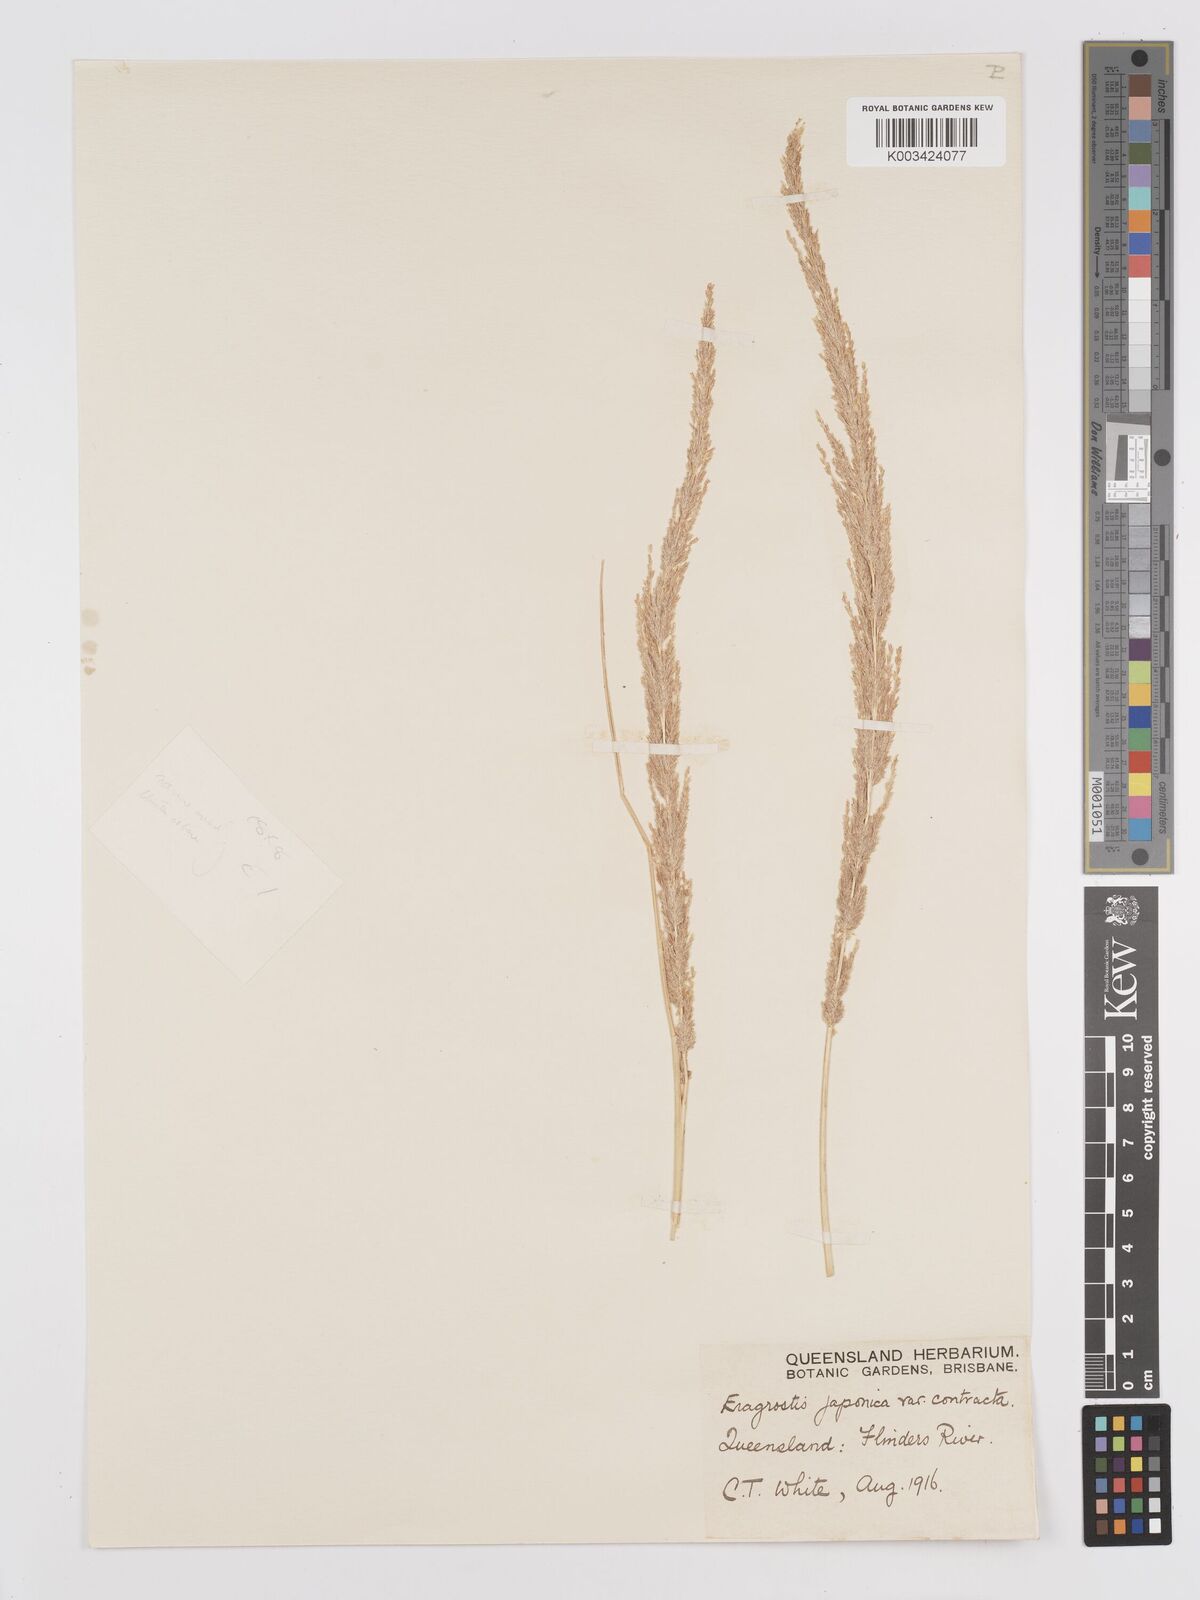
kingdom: Plantae
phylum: Tracheophyta
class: Liliopsida
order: Poales
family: Poaceae
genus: Eragrostis
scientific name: Eragrostis confertiflora
